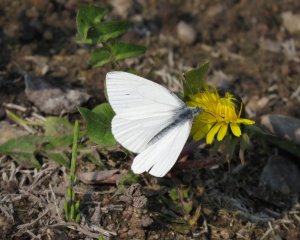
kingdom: Animalia
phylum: Arthropoda
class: Insecta
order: Lepidoptera
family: Pieridae
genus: Pieris
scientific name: Pieris oleracea
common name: Mustard White
